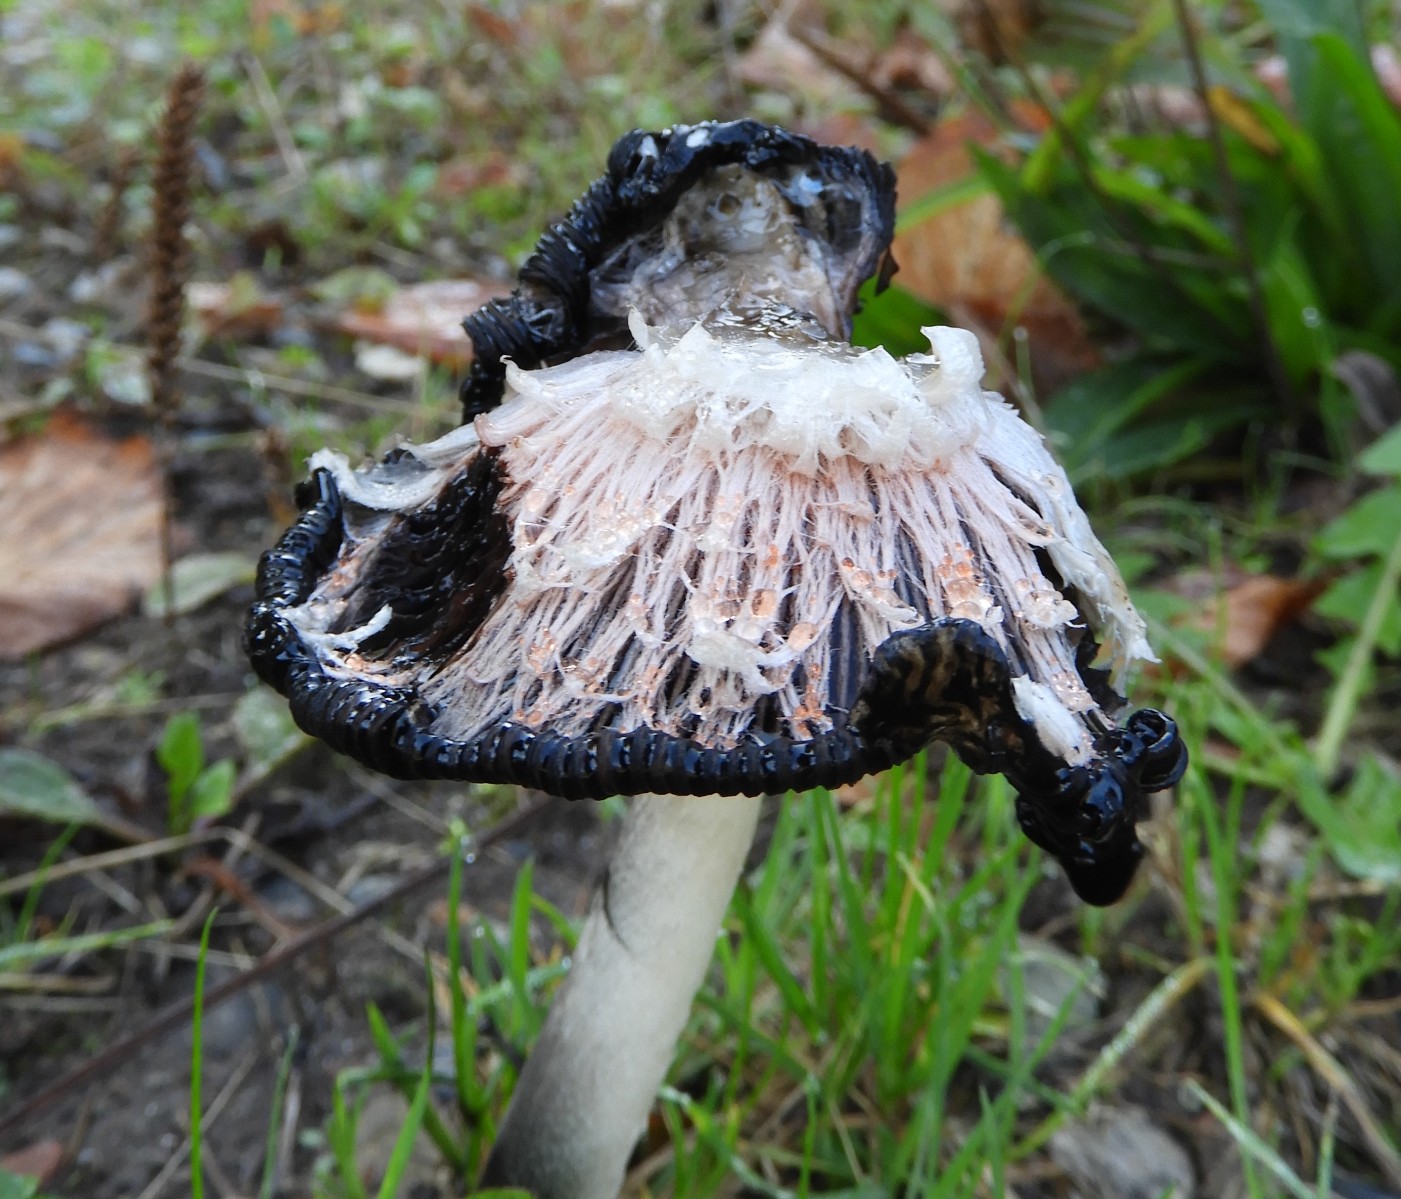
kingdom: Fungi
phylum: Basidiomycota
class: Agaricomycetes
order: Agaricales
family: Agaricaceae
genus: Coprinus
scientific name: Coprinus comatus
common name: stor parykhat
